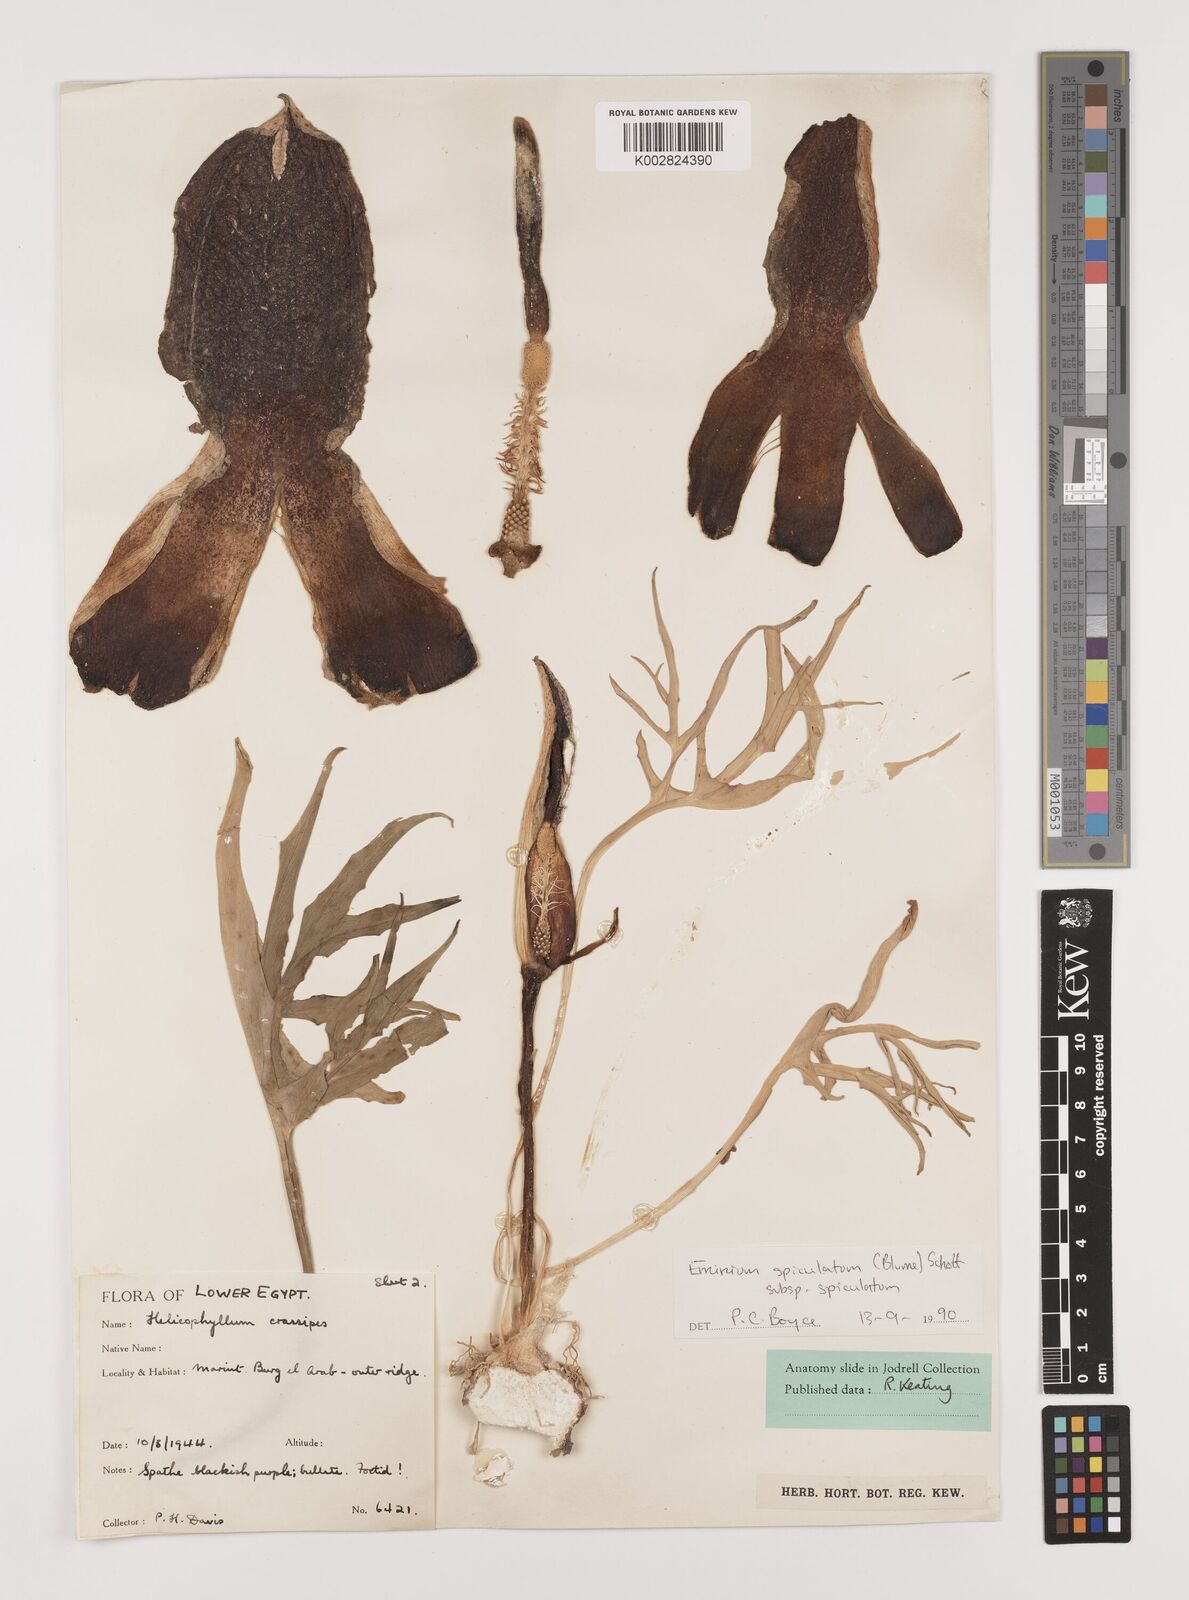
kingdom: Plantae
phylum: Tracheophyta
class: Liliopsida
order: Alismatales
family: Araceae
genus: Eminium
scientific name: Eminium spiculatum
